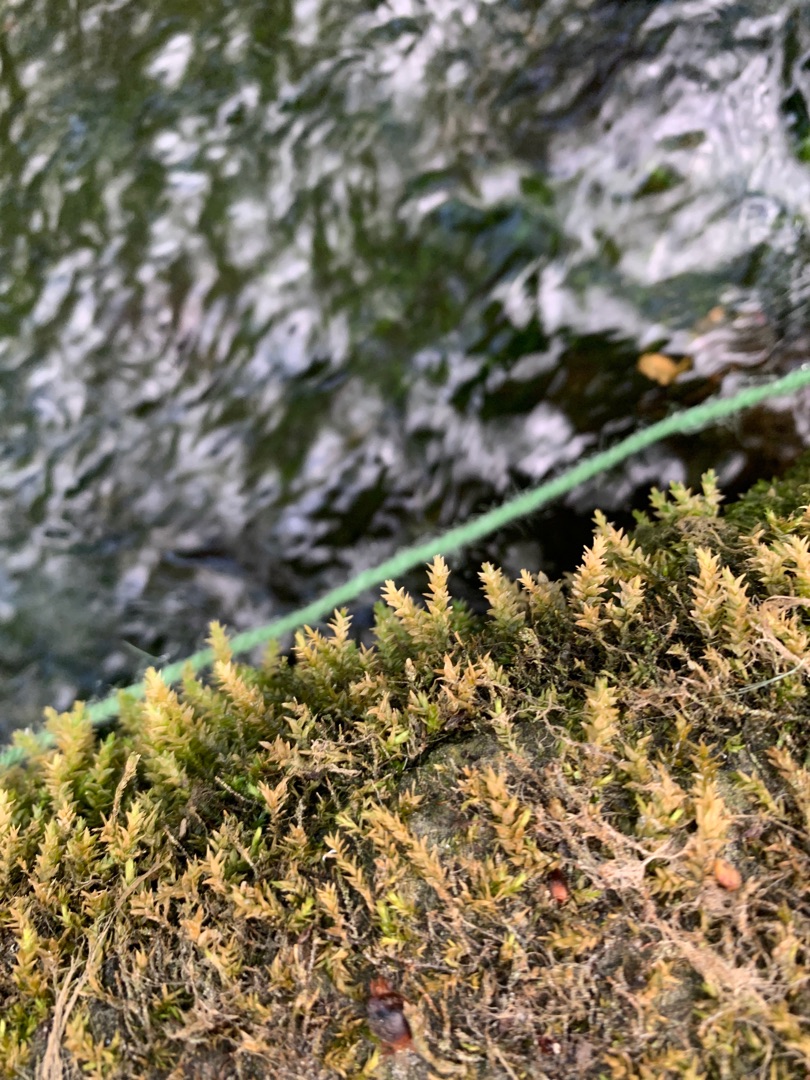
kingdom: Plantae
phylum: Bryophyta
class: Bryopsida
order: Hypnales
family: Brachytheciaceae
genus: Rhynchostegium
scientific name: Rhynchostegium riparioides
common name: Robust strømmos
